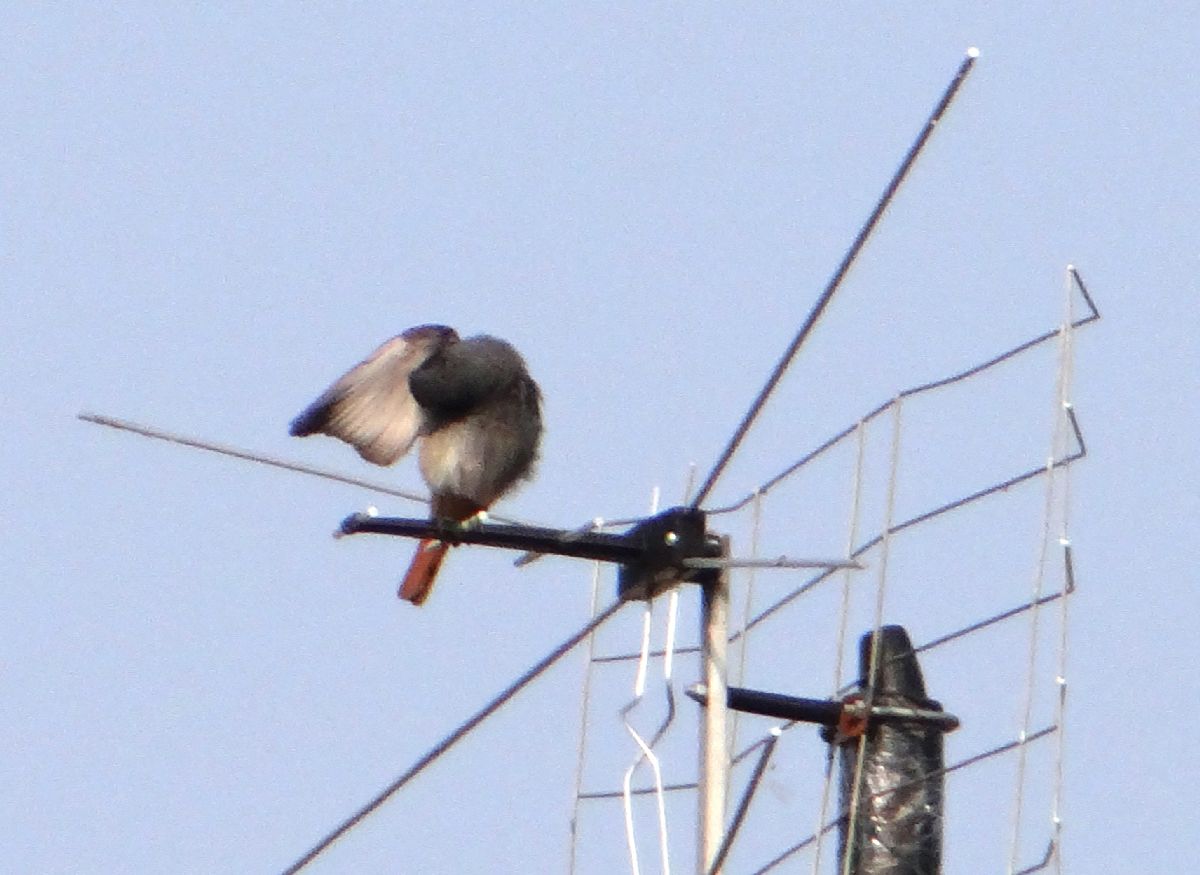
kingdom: Animalia
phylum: Chordata
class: Aves
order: Passeriformes
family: Muscicapidae
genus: Phoenicurus
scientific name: Phoenicurus ochruros
